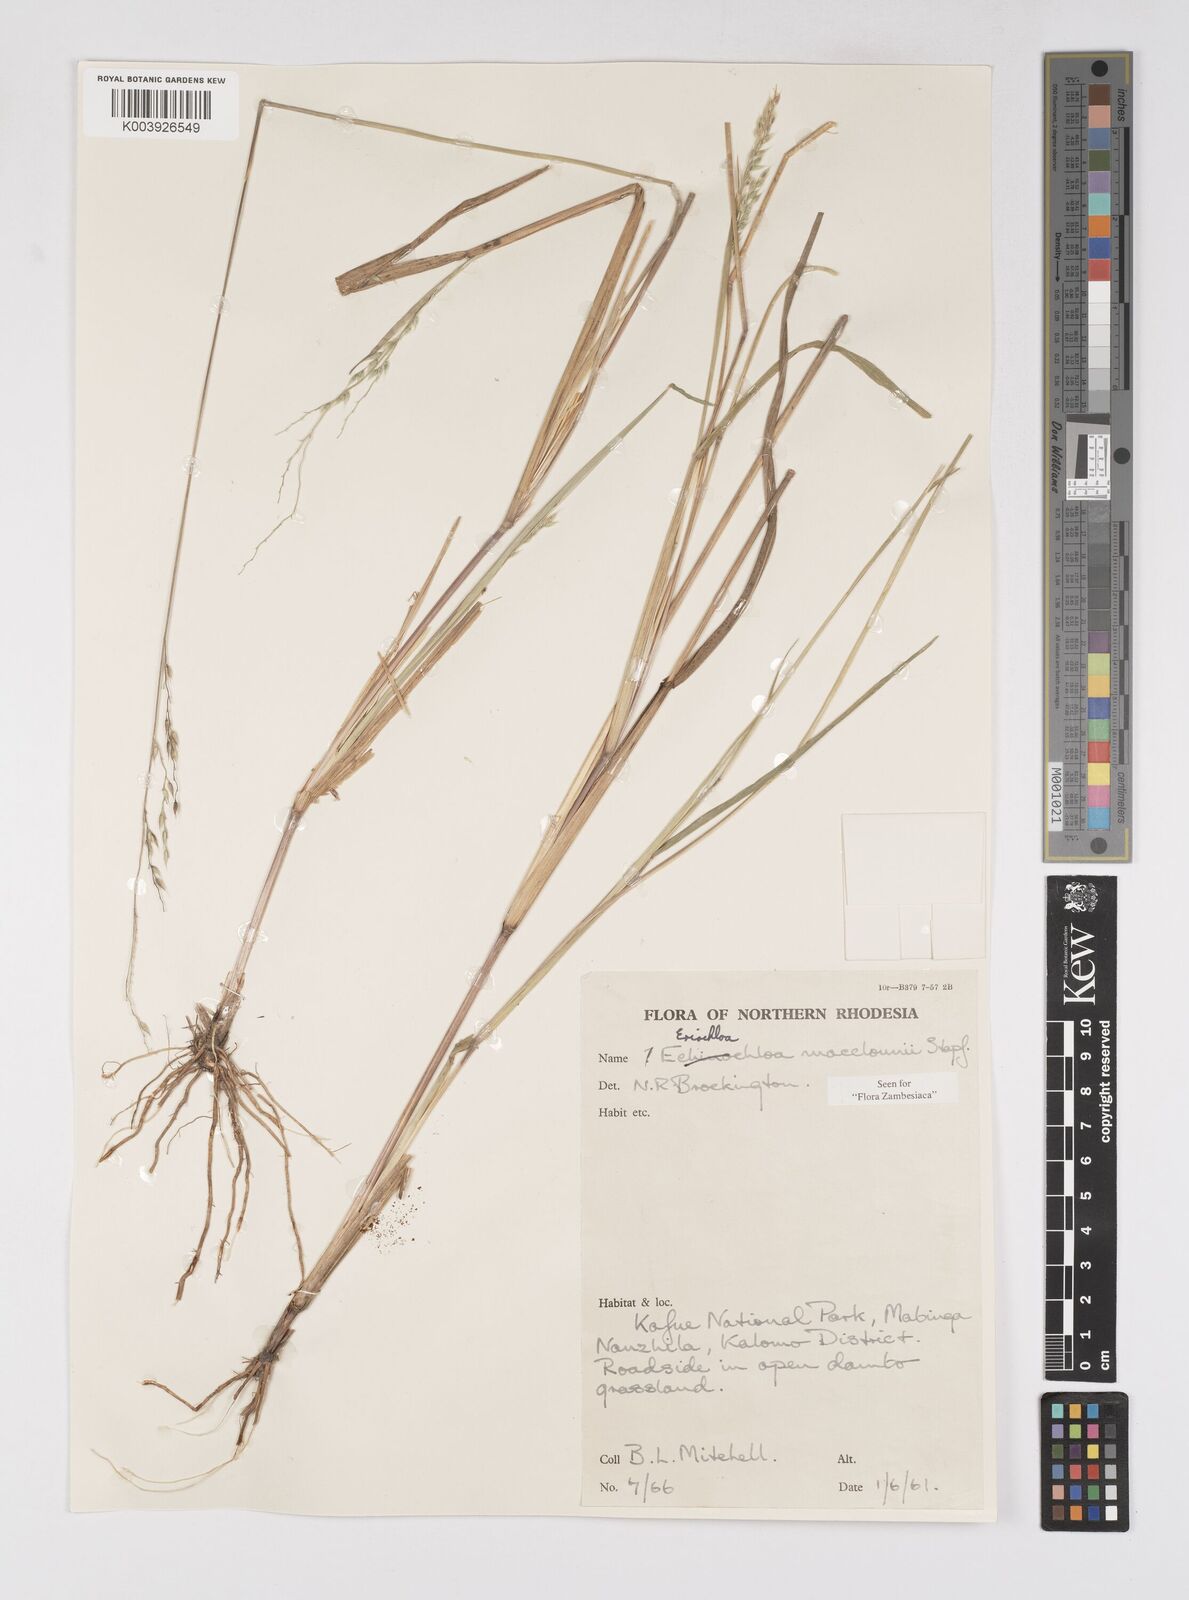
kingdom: Plantae
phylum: Tracheophyta
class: Liliopsida
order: Poales
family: Poaceae
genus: Eriochloa
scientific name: Eriochloa macclounii
